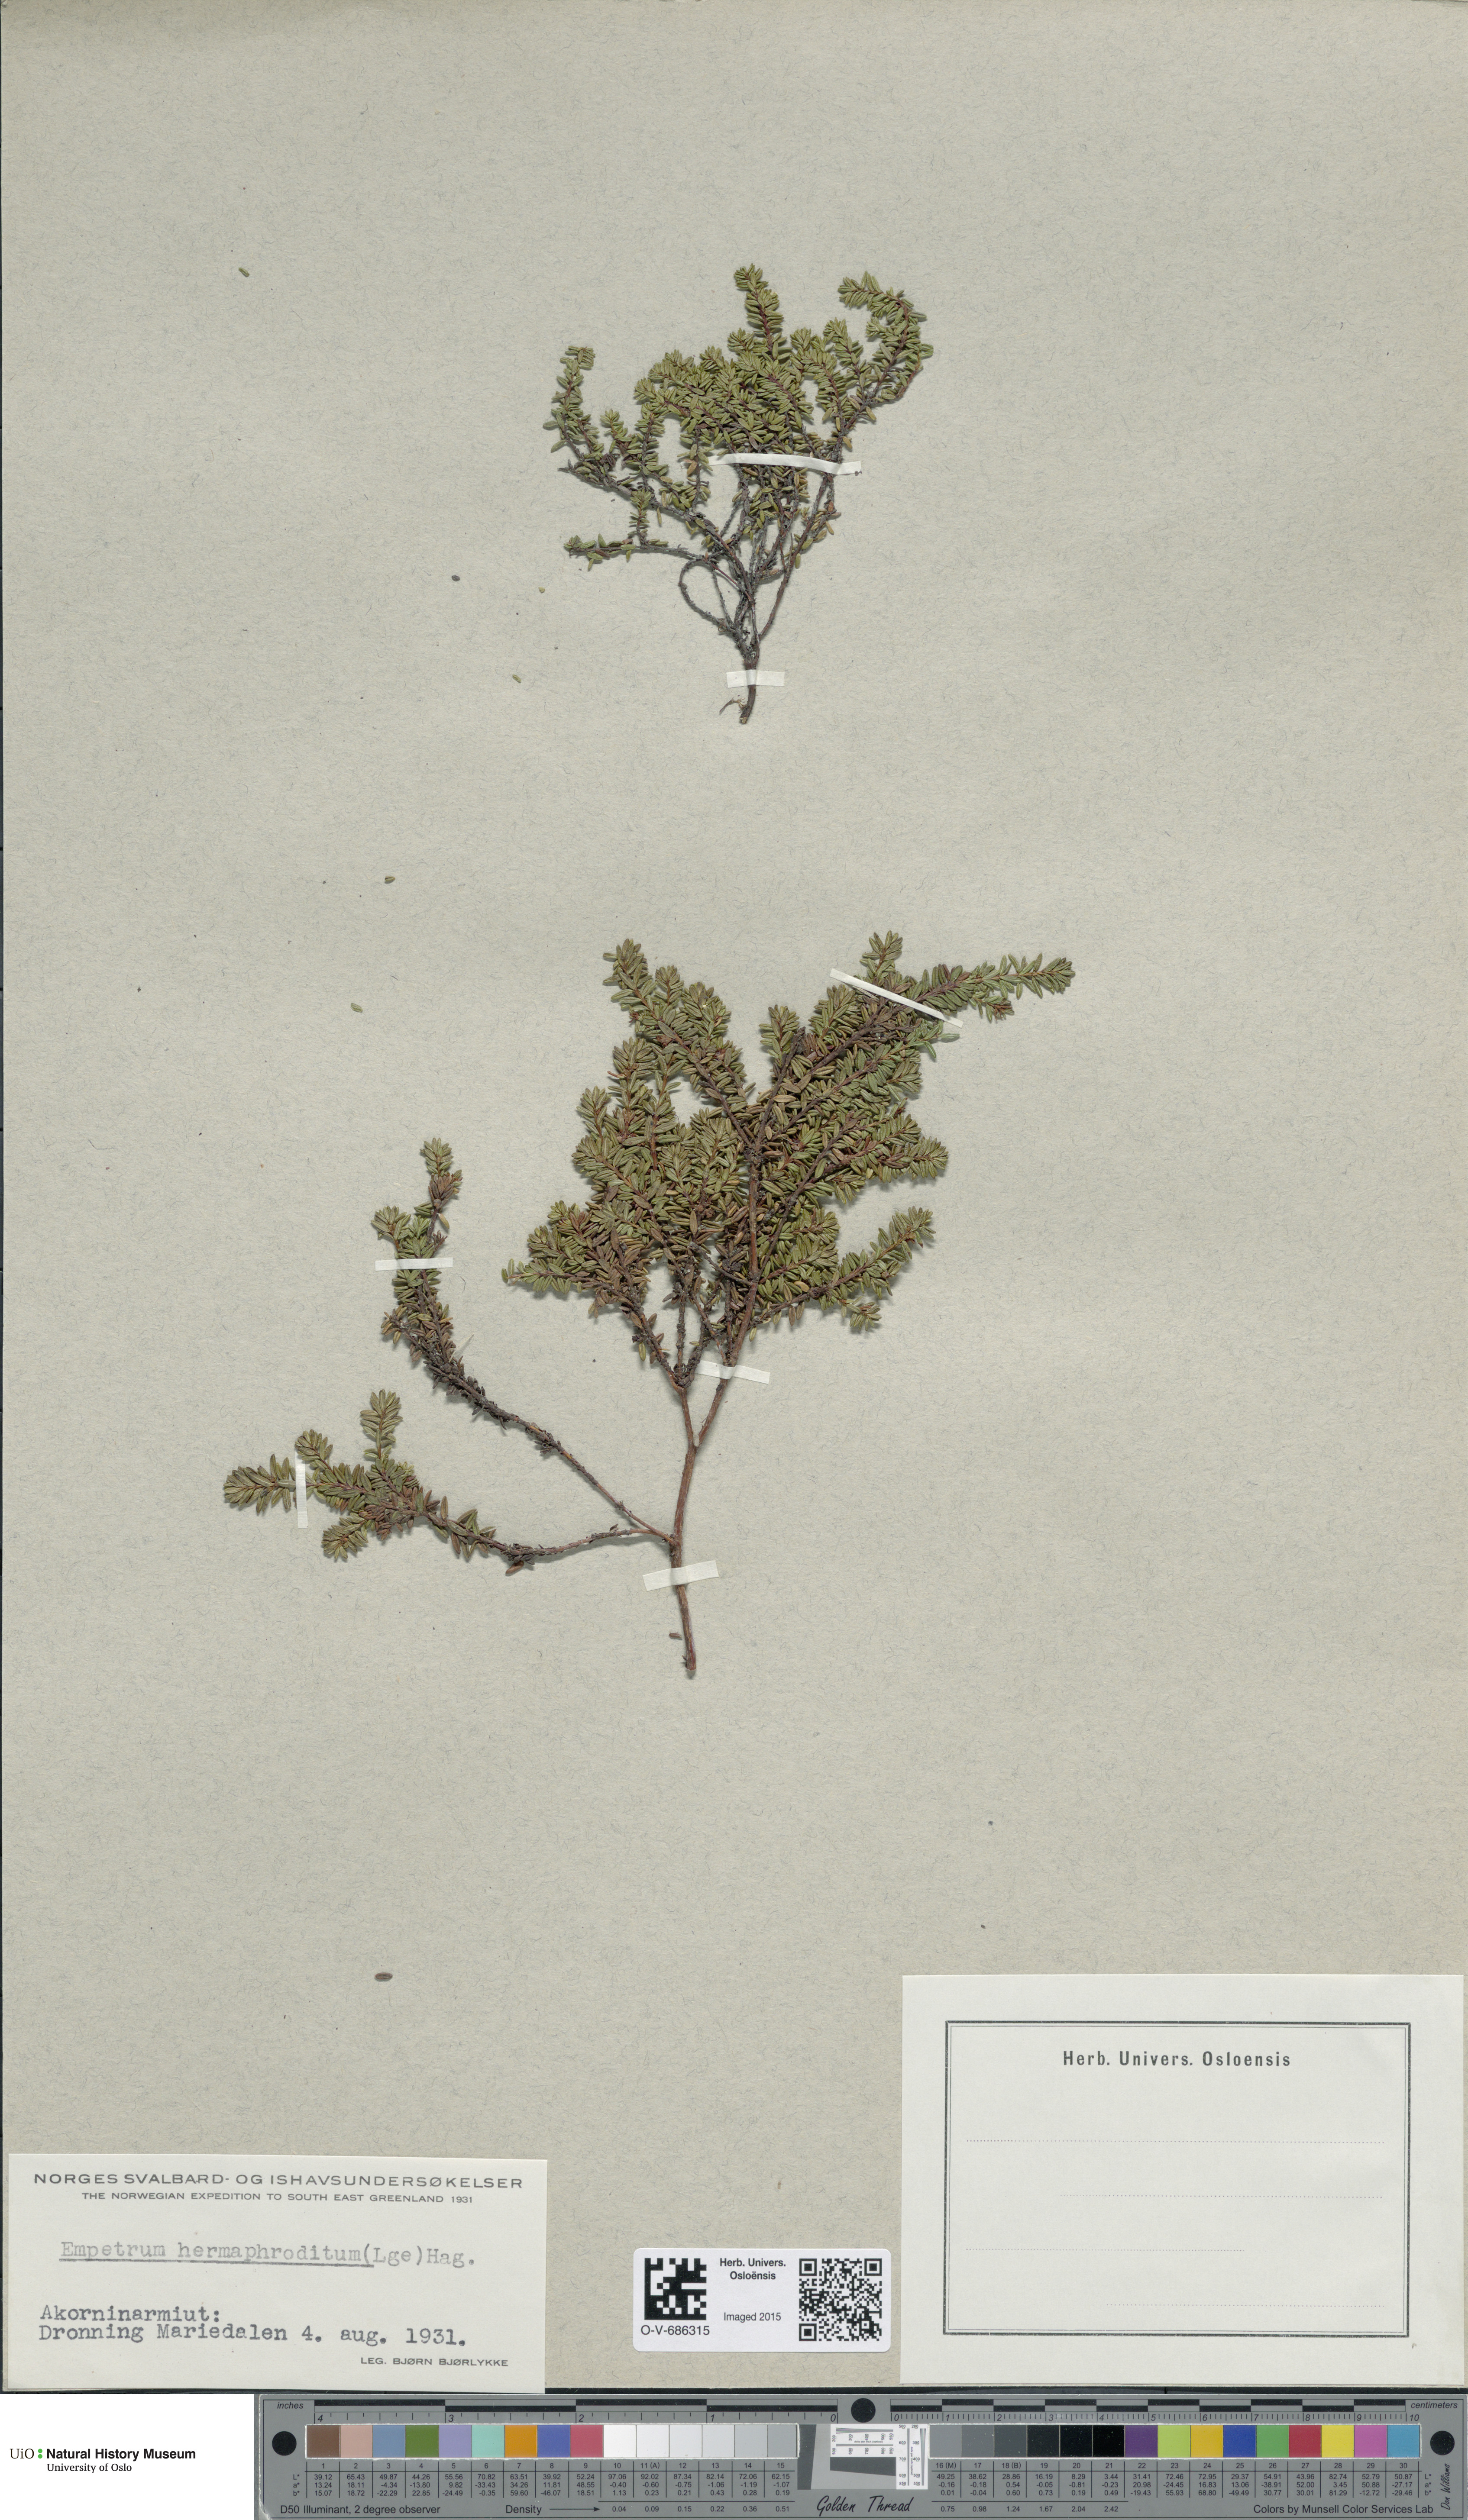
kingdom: Plantae
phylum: Tracheophyta
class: Magnoliopsida
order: Ericales
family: Ericaceae
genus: Empetrum
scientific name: Empetrum hermaphroditum
